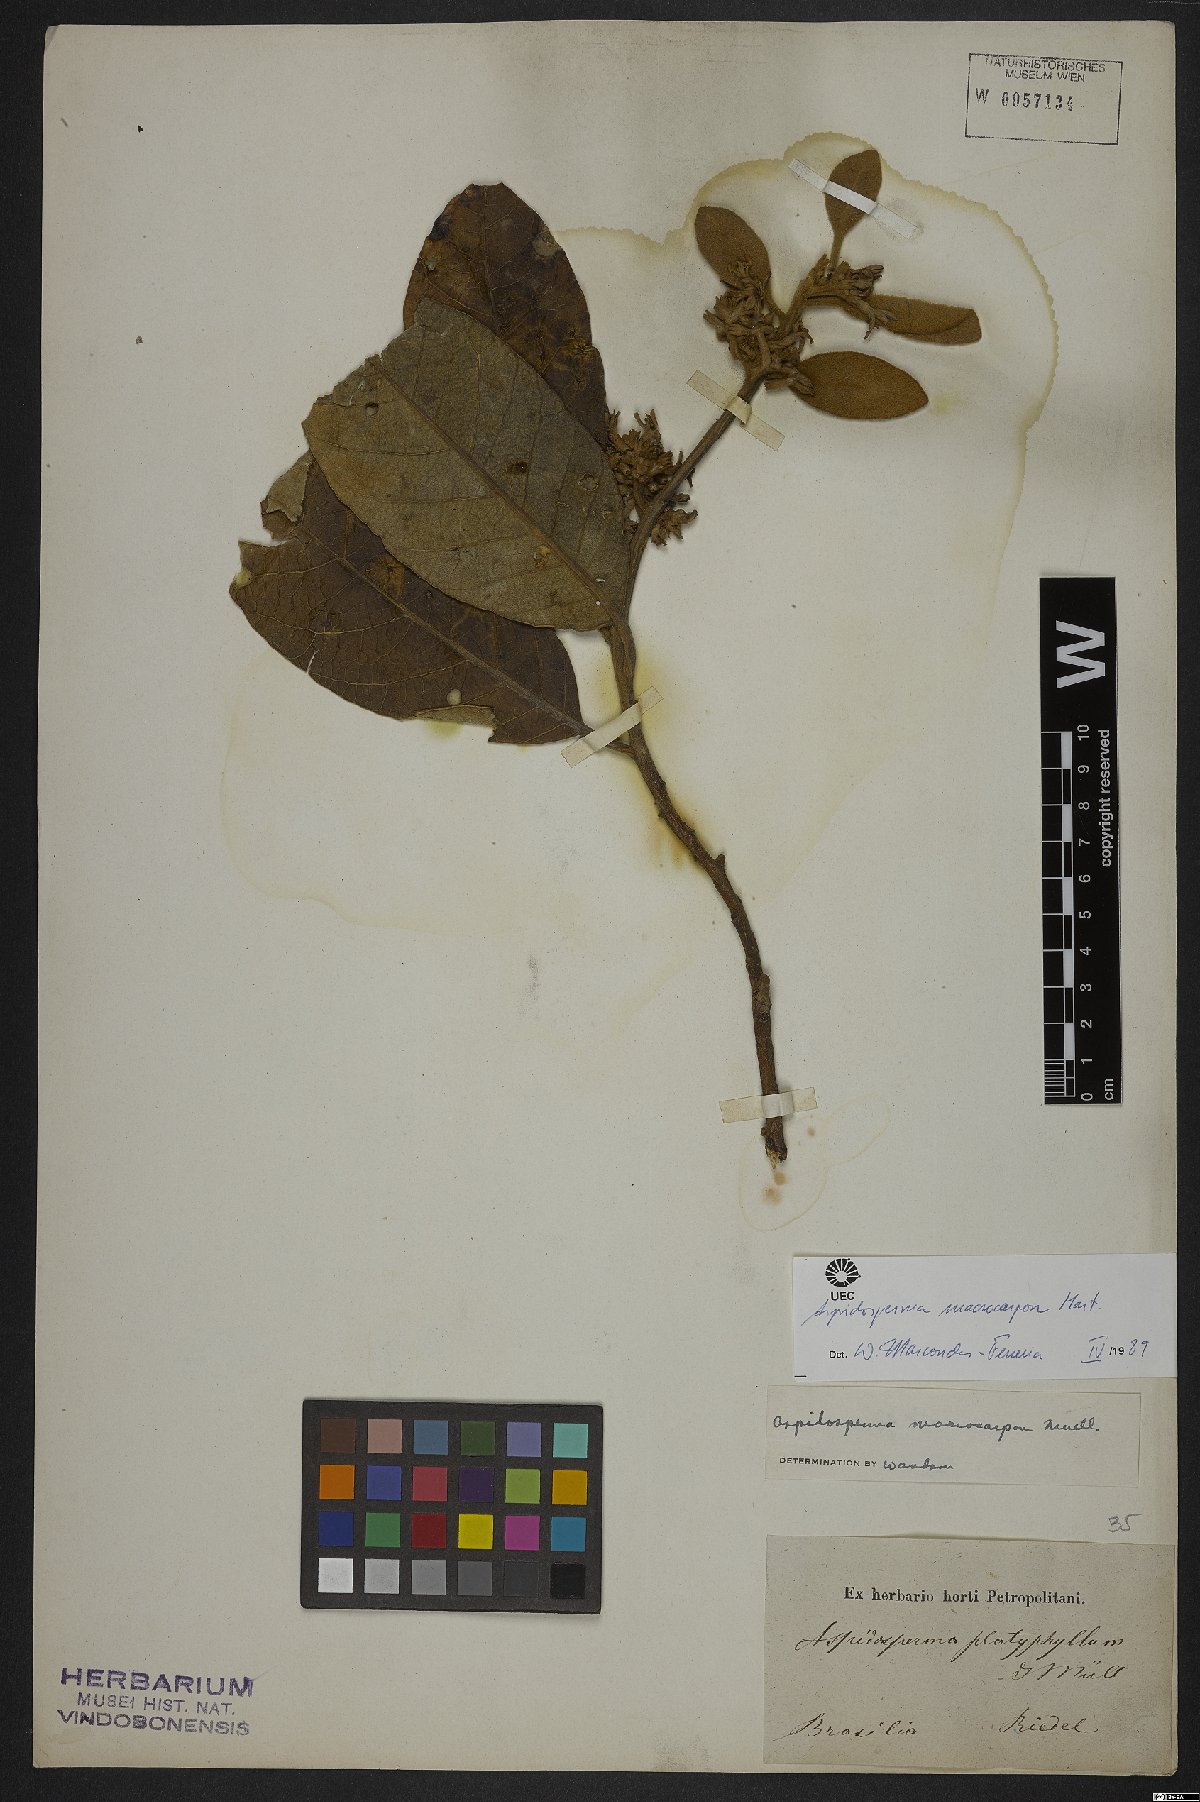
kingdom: Plantae
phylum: Tracheophyta
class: Magnoliopsida
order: Gentianales
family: Apocynaceae
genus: Aspidosperma
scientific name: Aspidosperma macrocarpon
